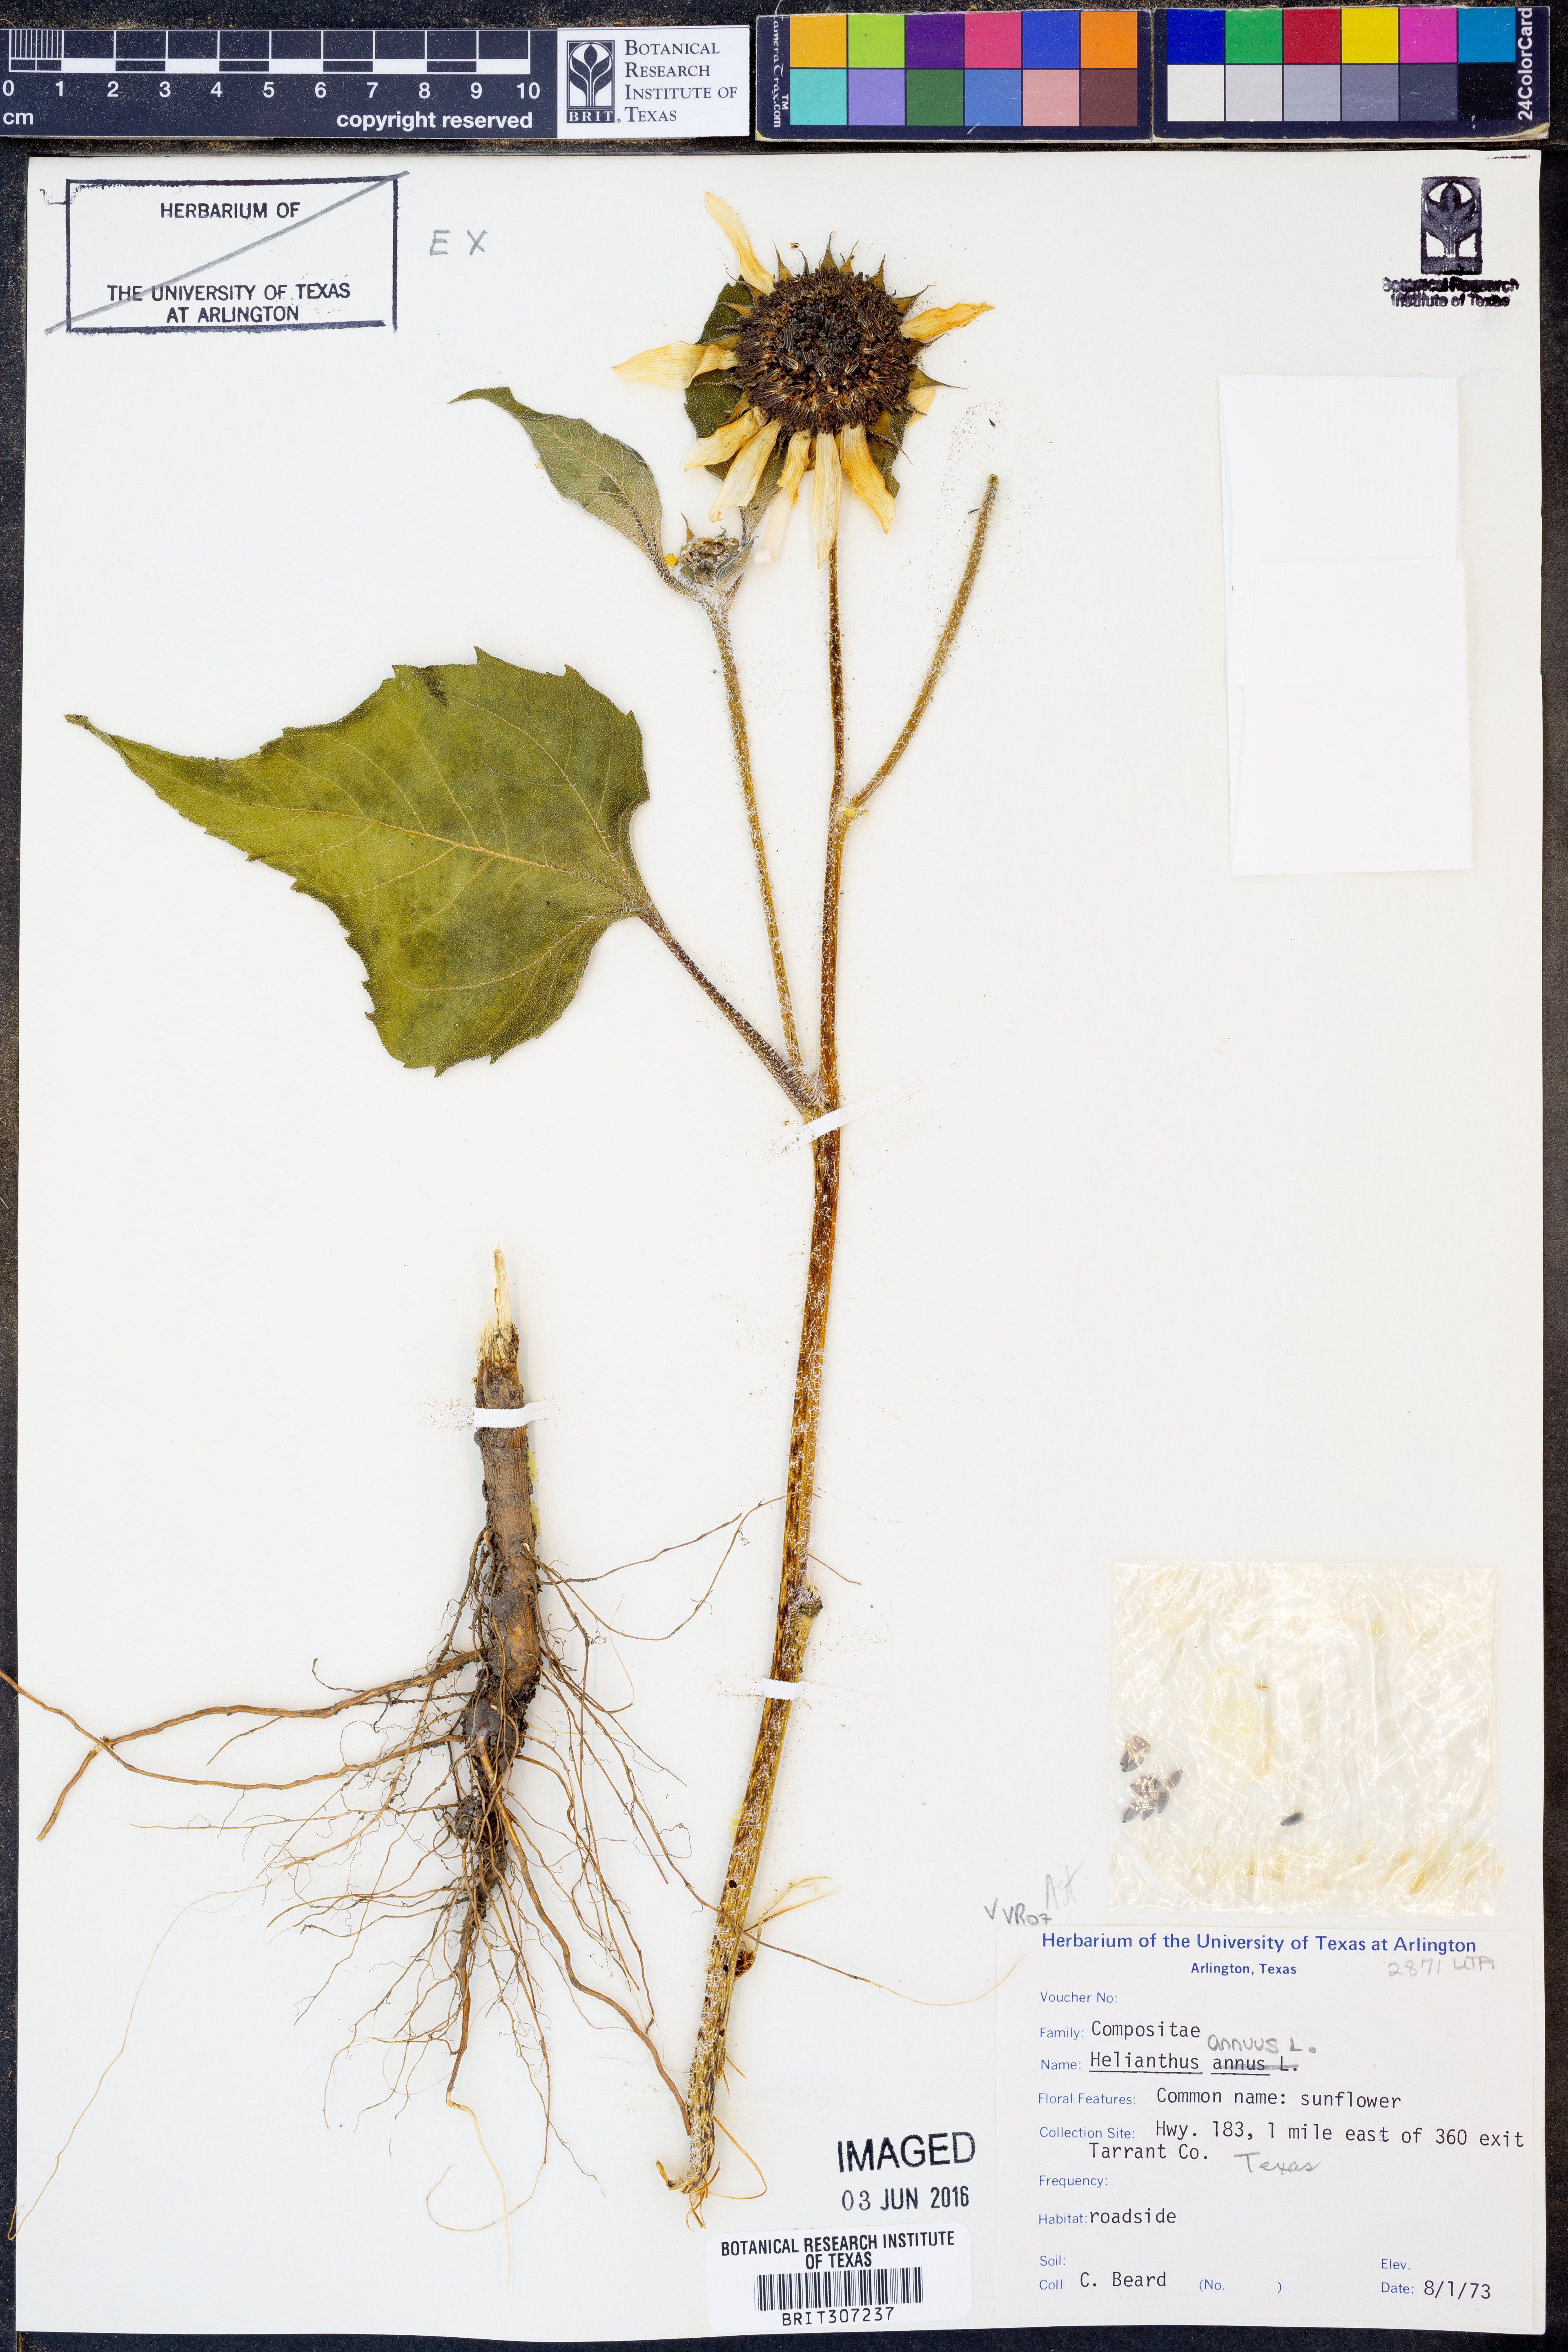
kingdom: Plantae
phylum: Tracheophyta
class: Magnoliopsida
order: Asterales
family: Asteraceae
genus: Helianthus
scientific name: Helianthus annuus
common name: Sunflower
